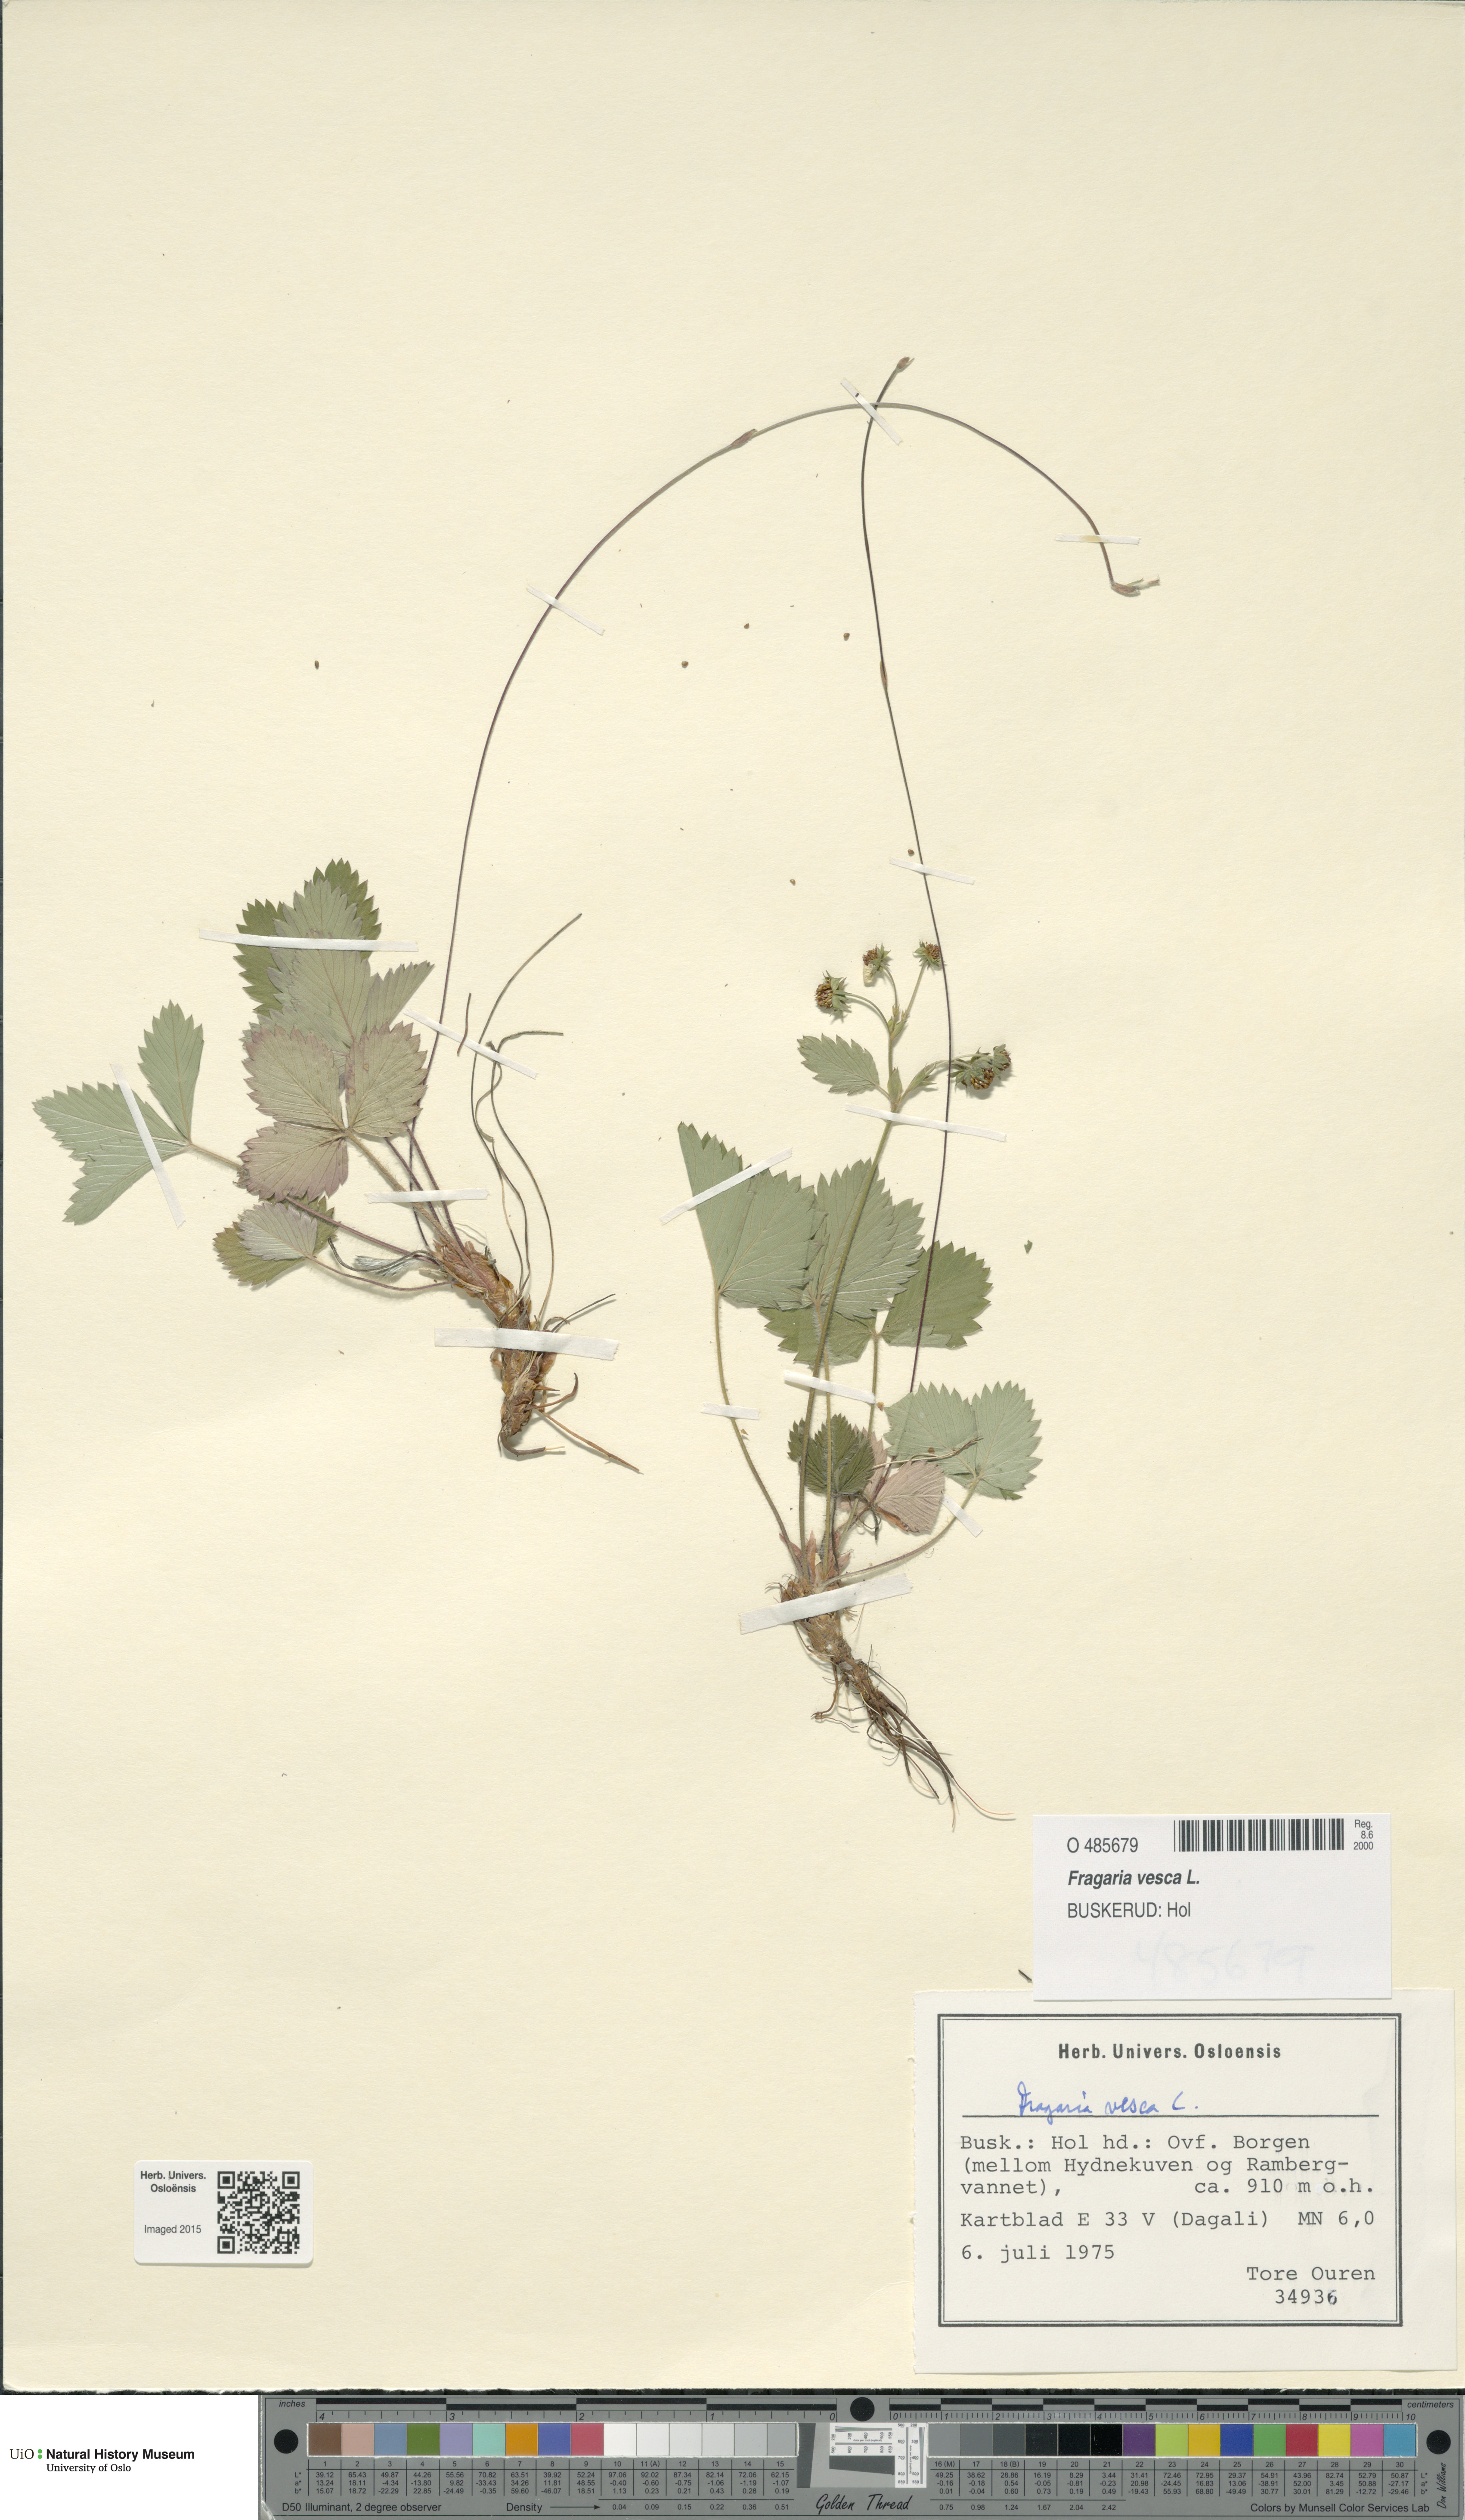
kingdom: Plantae
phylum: Tracheophyta
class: Magnoliopsida
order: Rosales
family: Rosaceae
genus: Fragaria
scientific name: Fragaria vesca
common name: Wild strawberry
